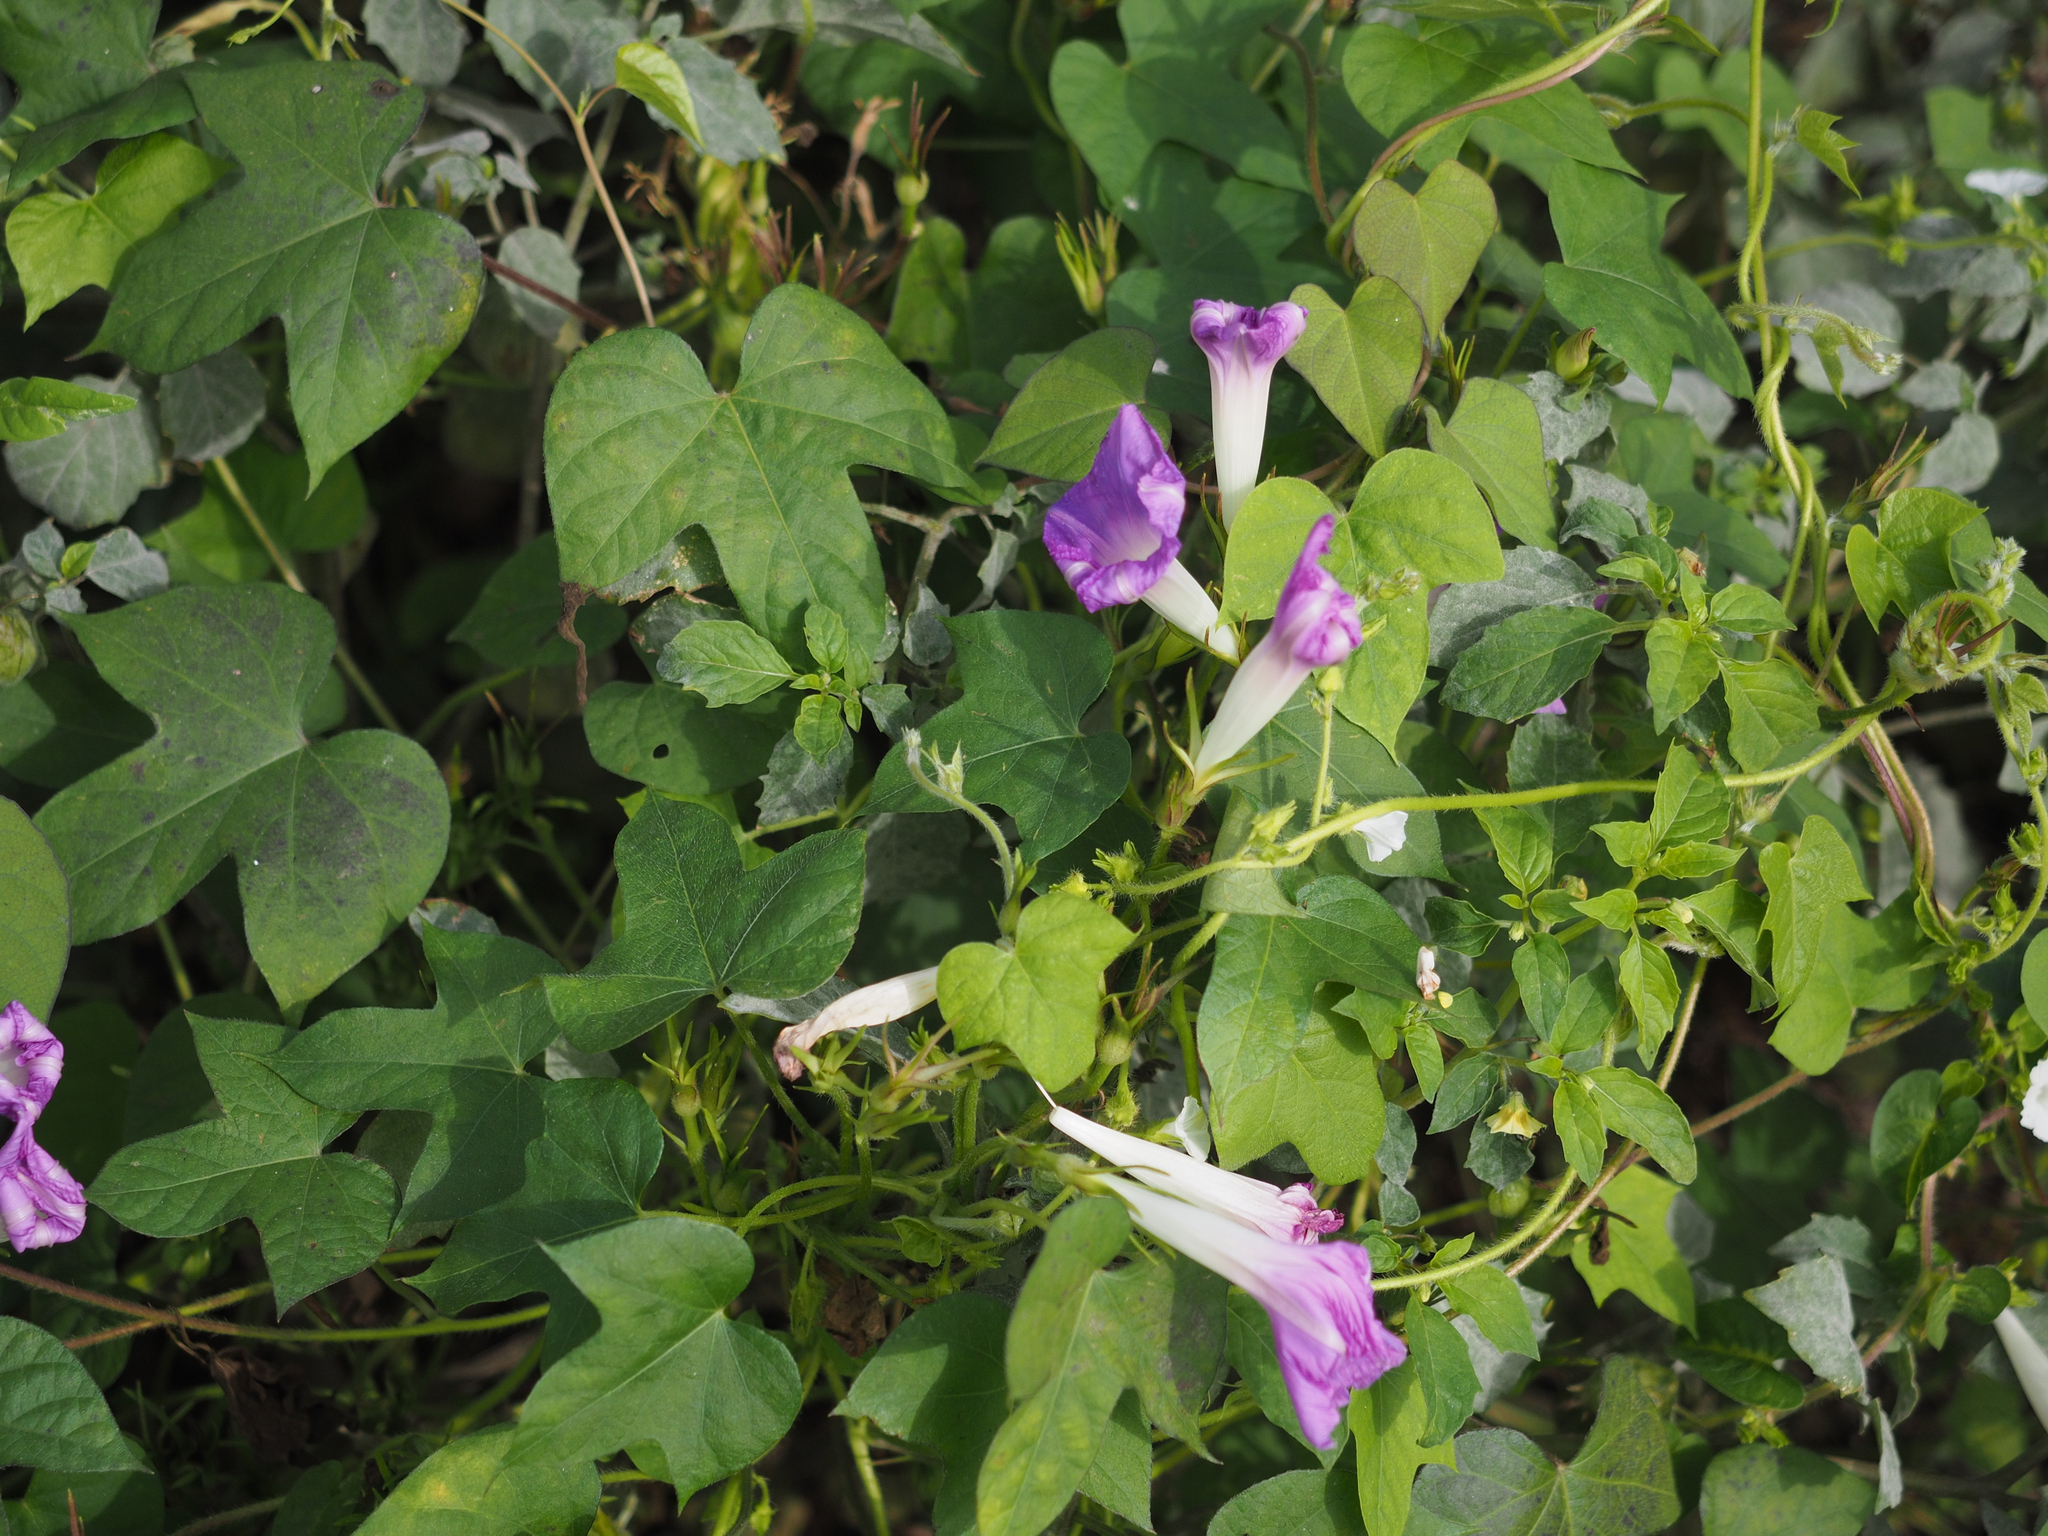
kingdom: Plantae
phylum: Tracheophyta
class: Magnoliopsida
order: Solanales
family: Convolvulaceae
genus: Ipomoea
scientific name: Ipomoea indica
